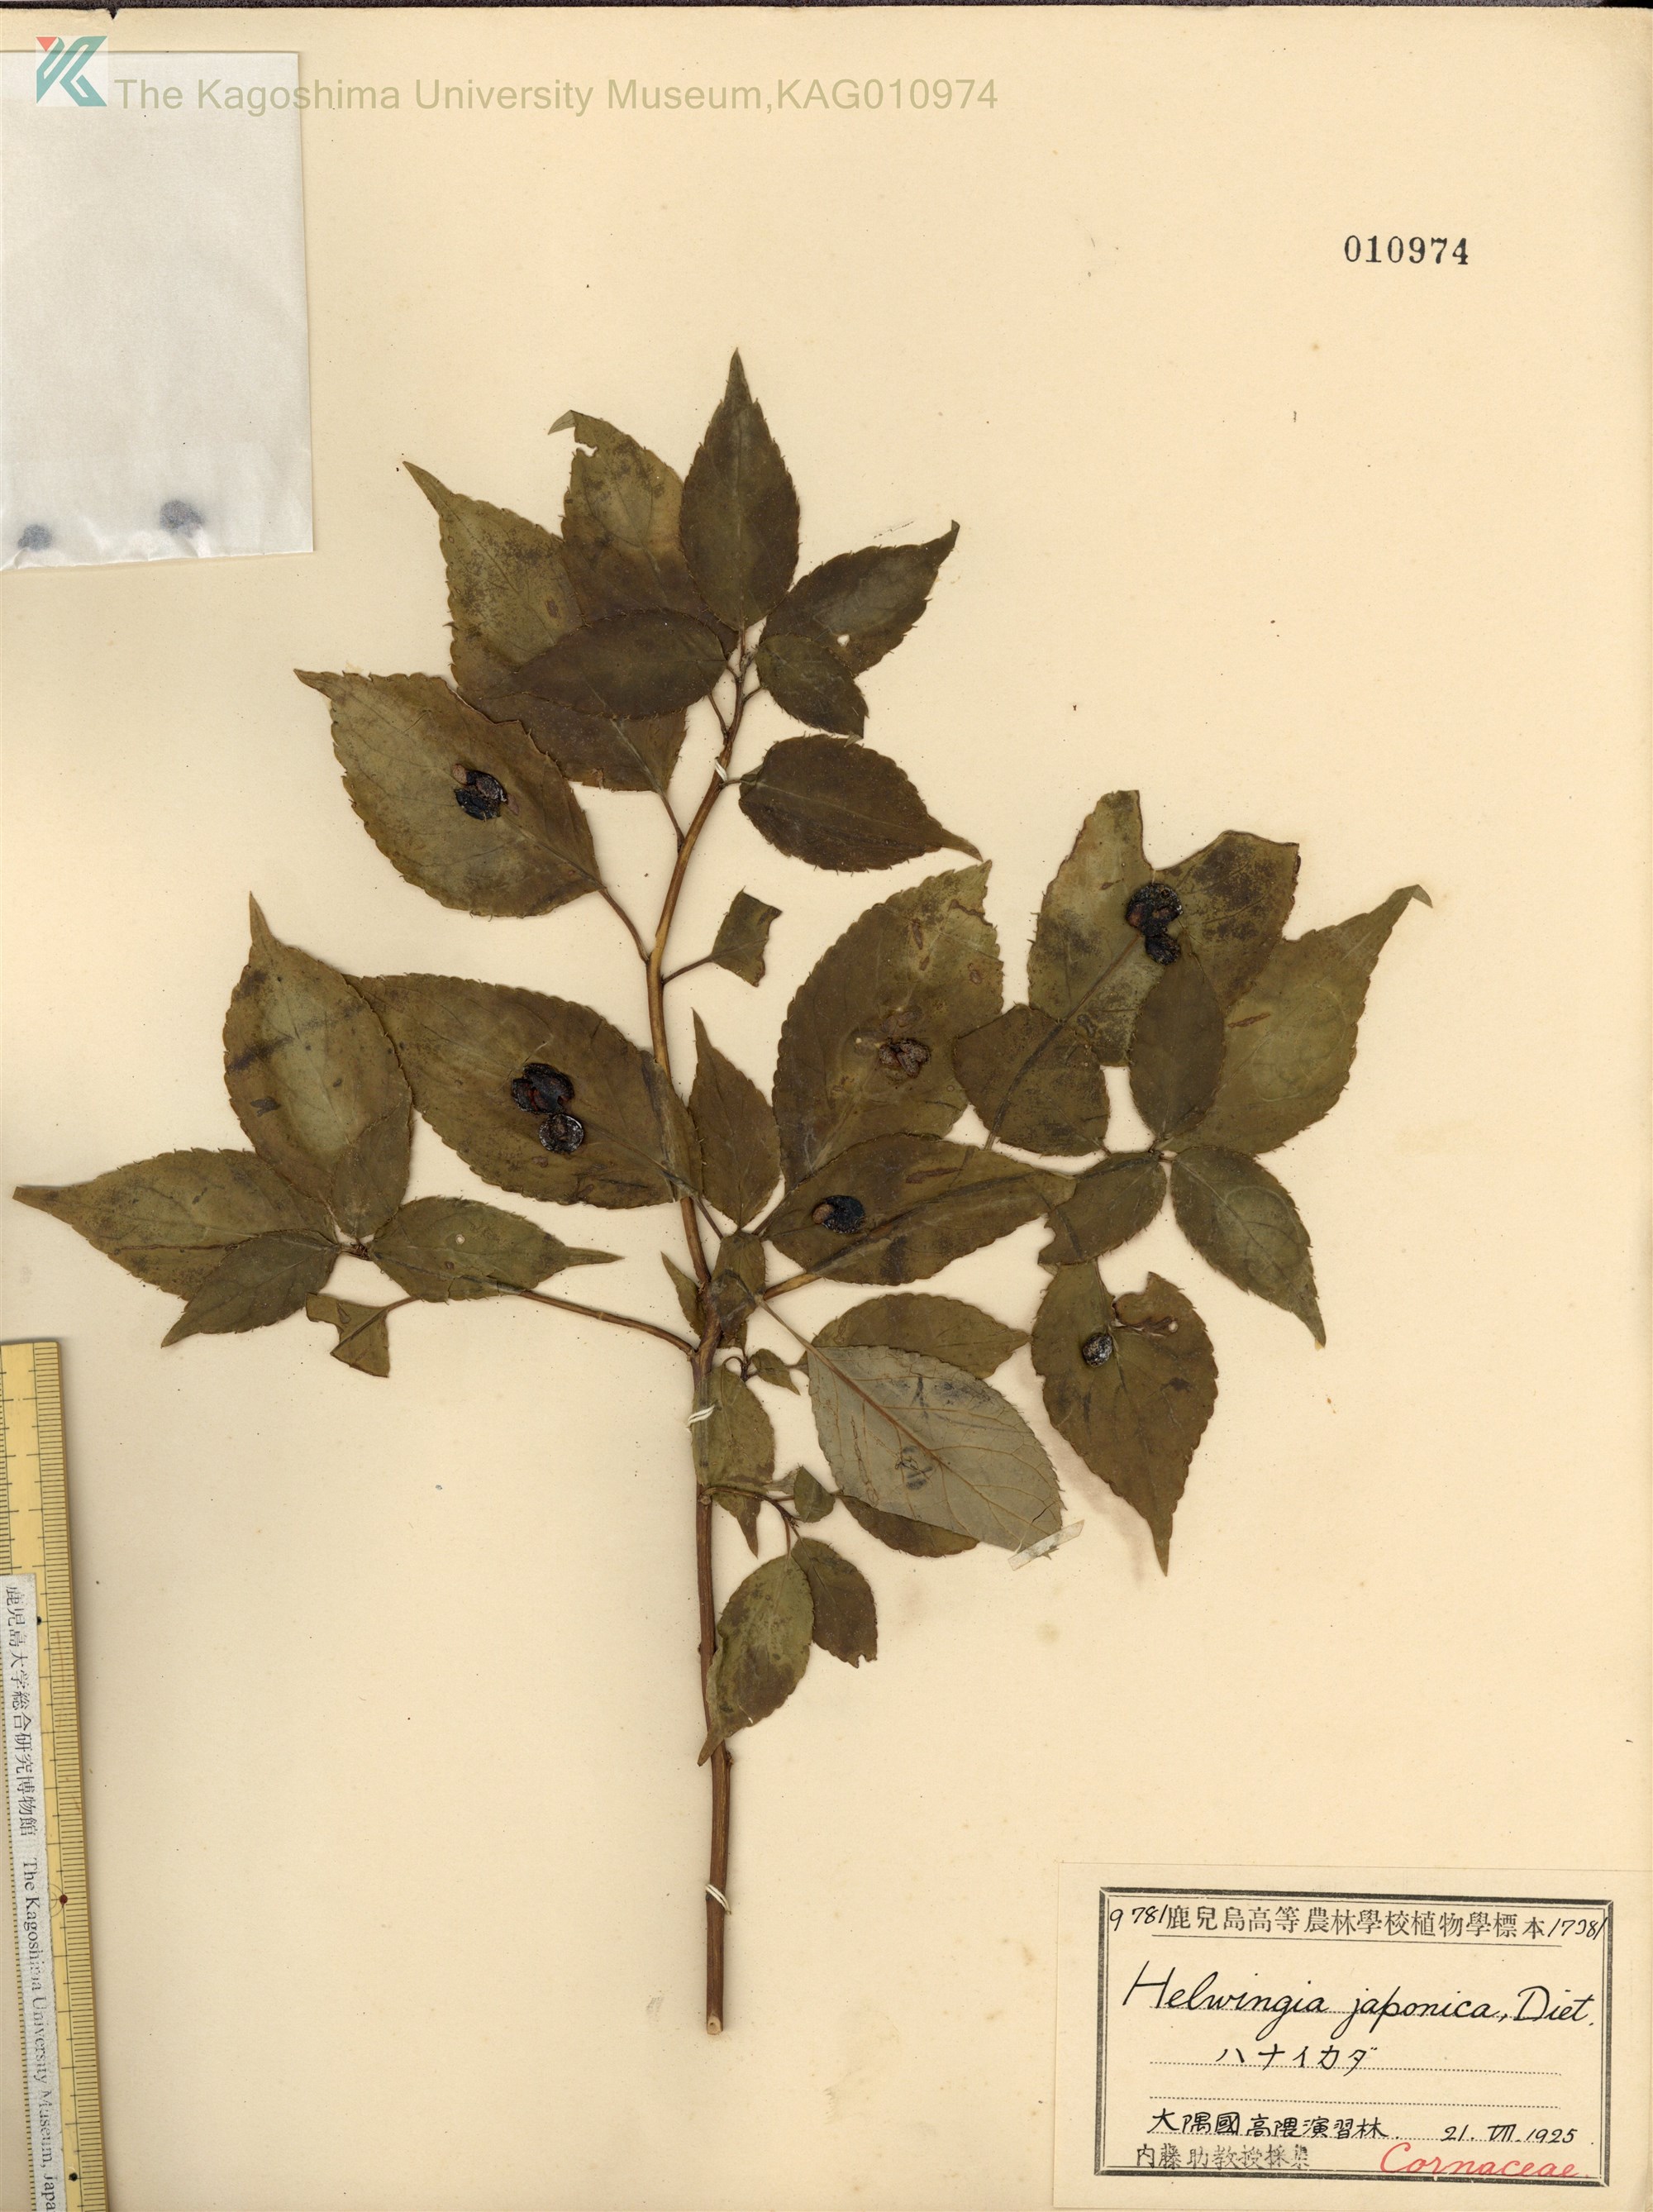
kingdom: Plantae
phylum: Tracheophyta
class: Magnoliopsida
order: Aquifoliales
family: Helwingiaceae
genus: Helwingia
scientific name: Helwingia japonica
